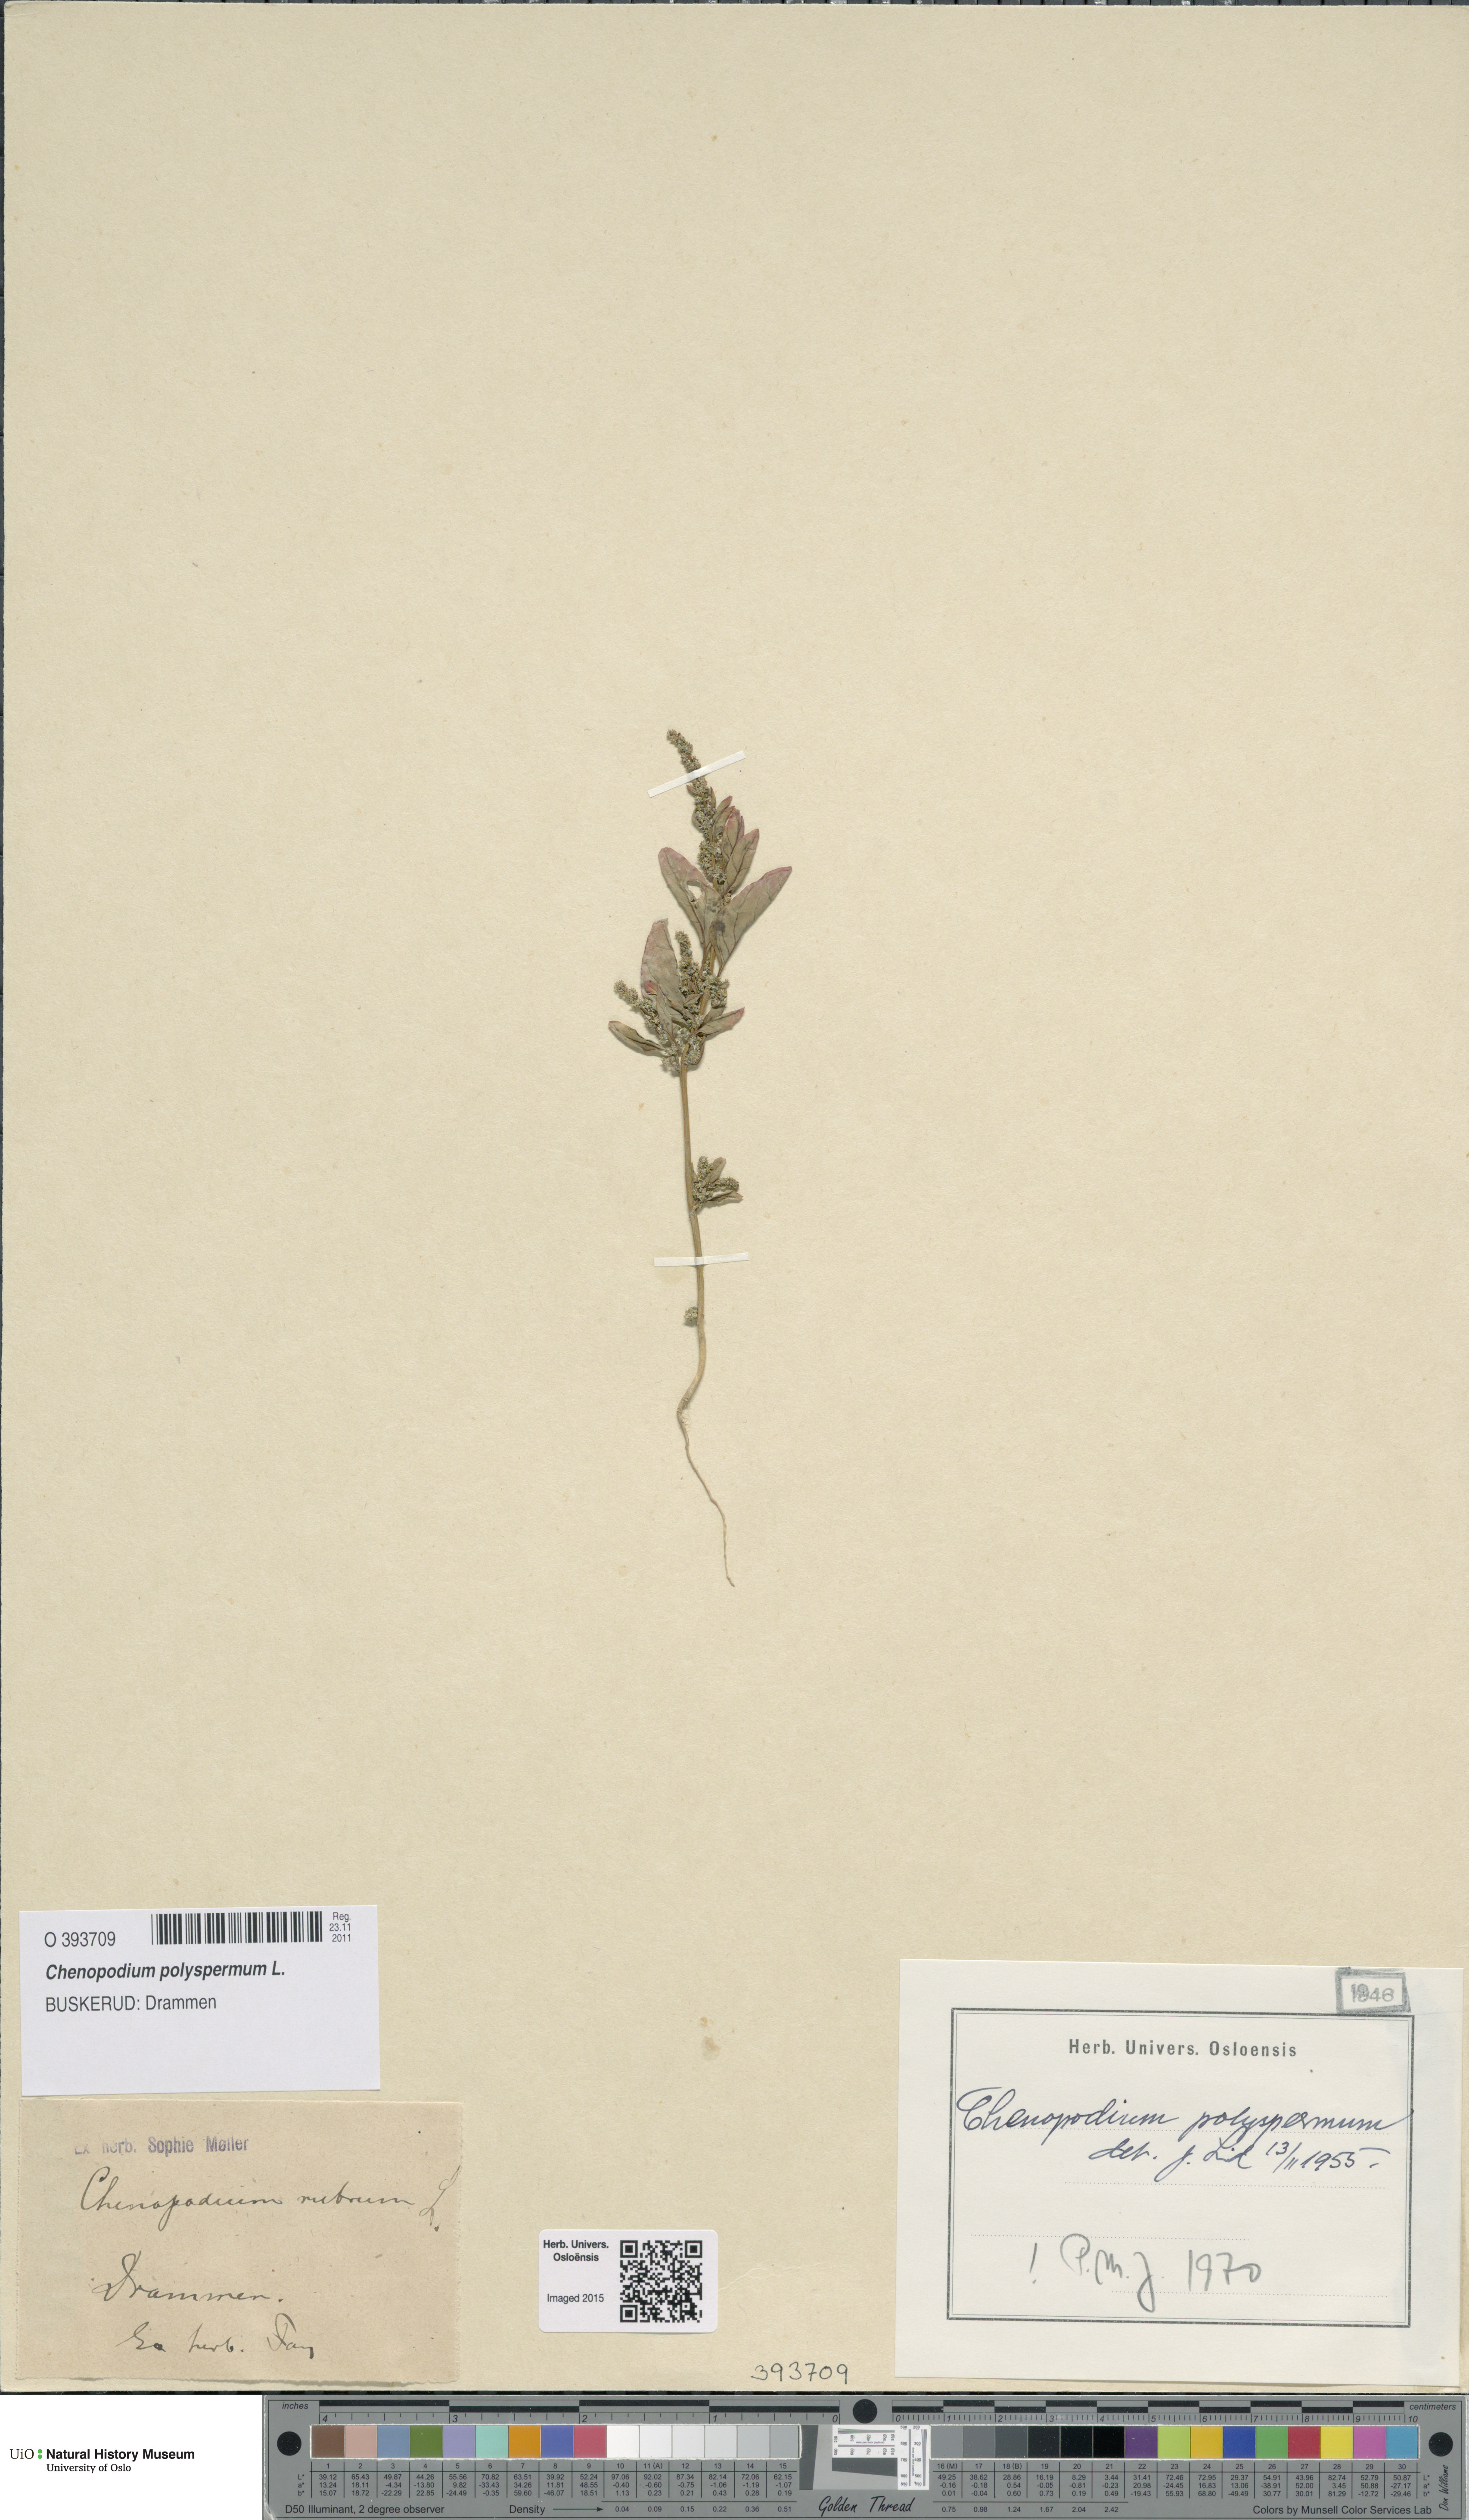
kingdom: Plantae
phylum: Tracheophyta
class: Magnoliopsida
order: Caryophyllales
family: Amaranthaceae
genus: Lipandra
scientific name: Lipandra polysperma
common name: Many-seed goosefoot
